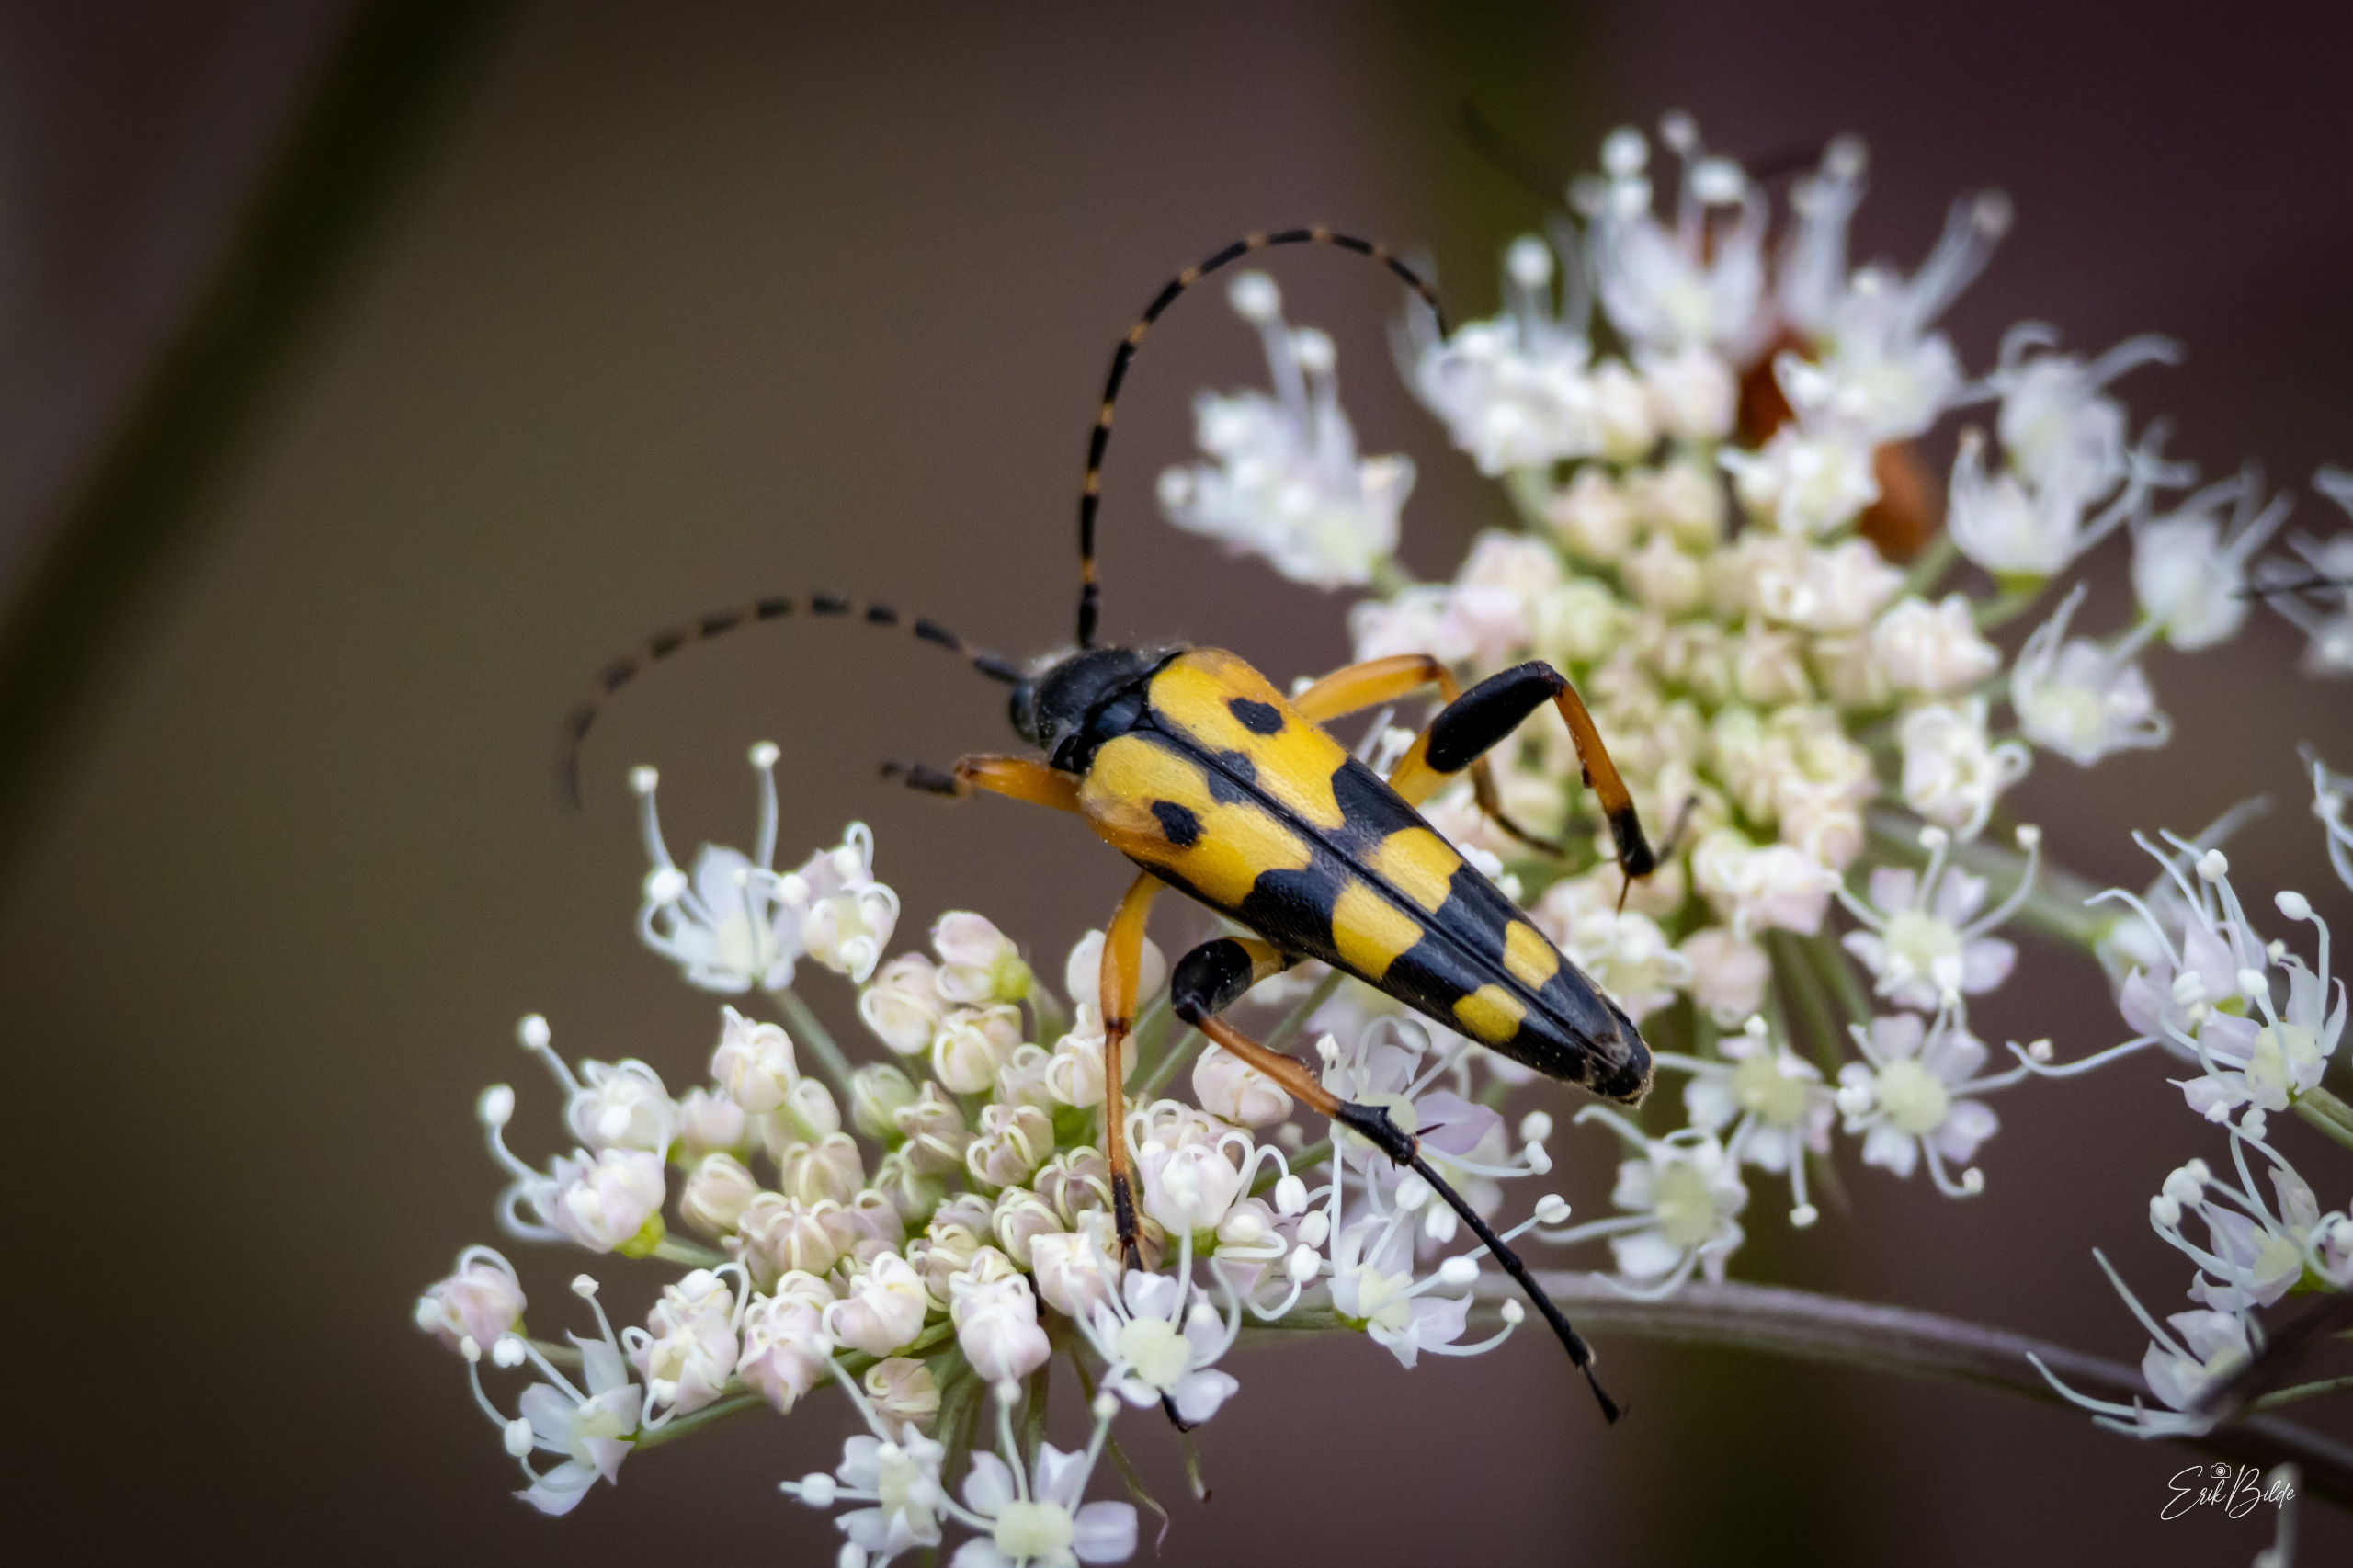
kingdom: Animalia
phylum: Arthropoda
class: Insecta
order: Coleoptera
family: Cerambycidae
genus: Rutpela
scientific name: Rutpela maculata
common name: Sydlig blomsterbuk
